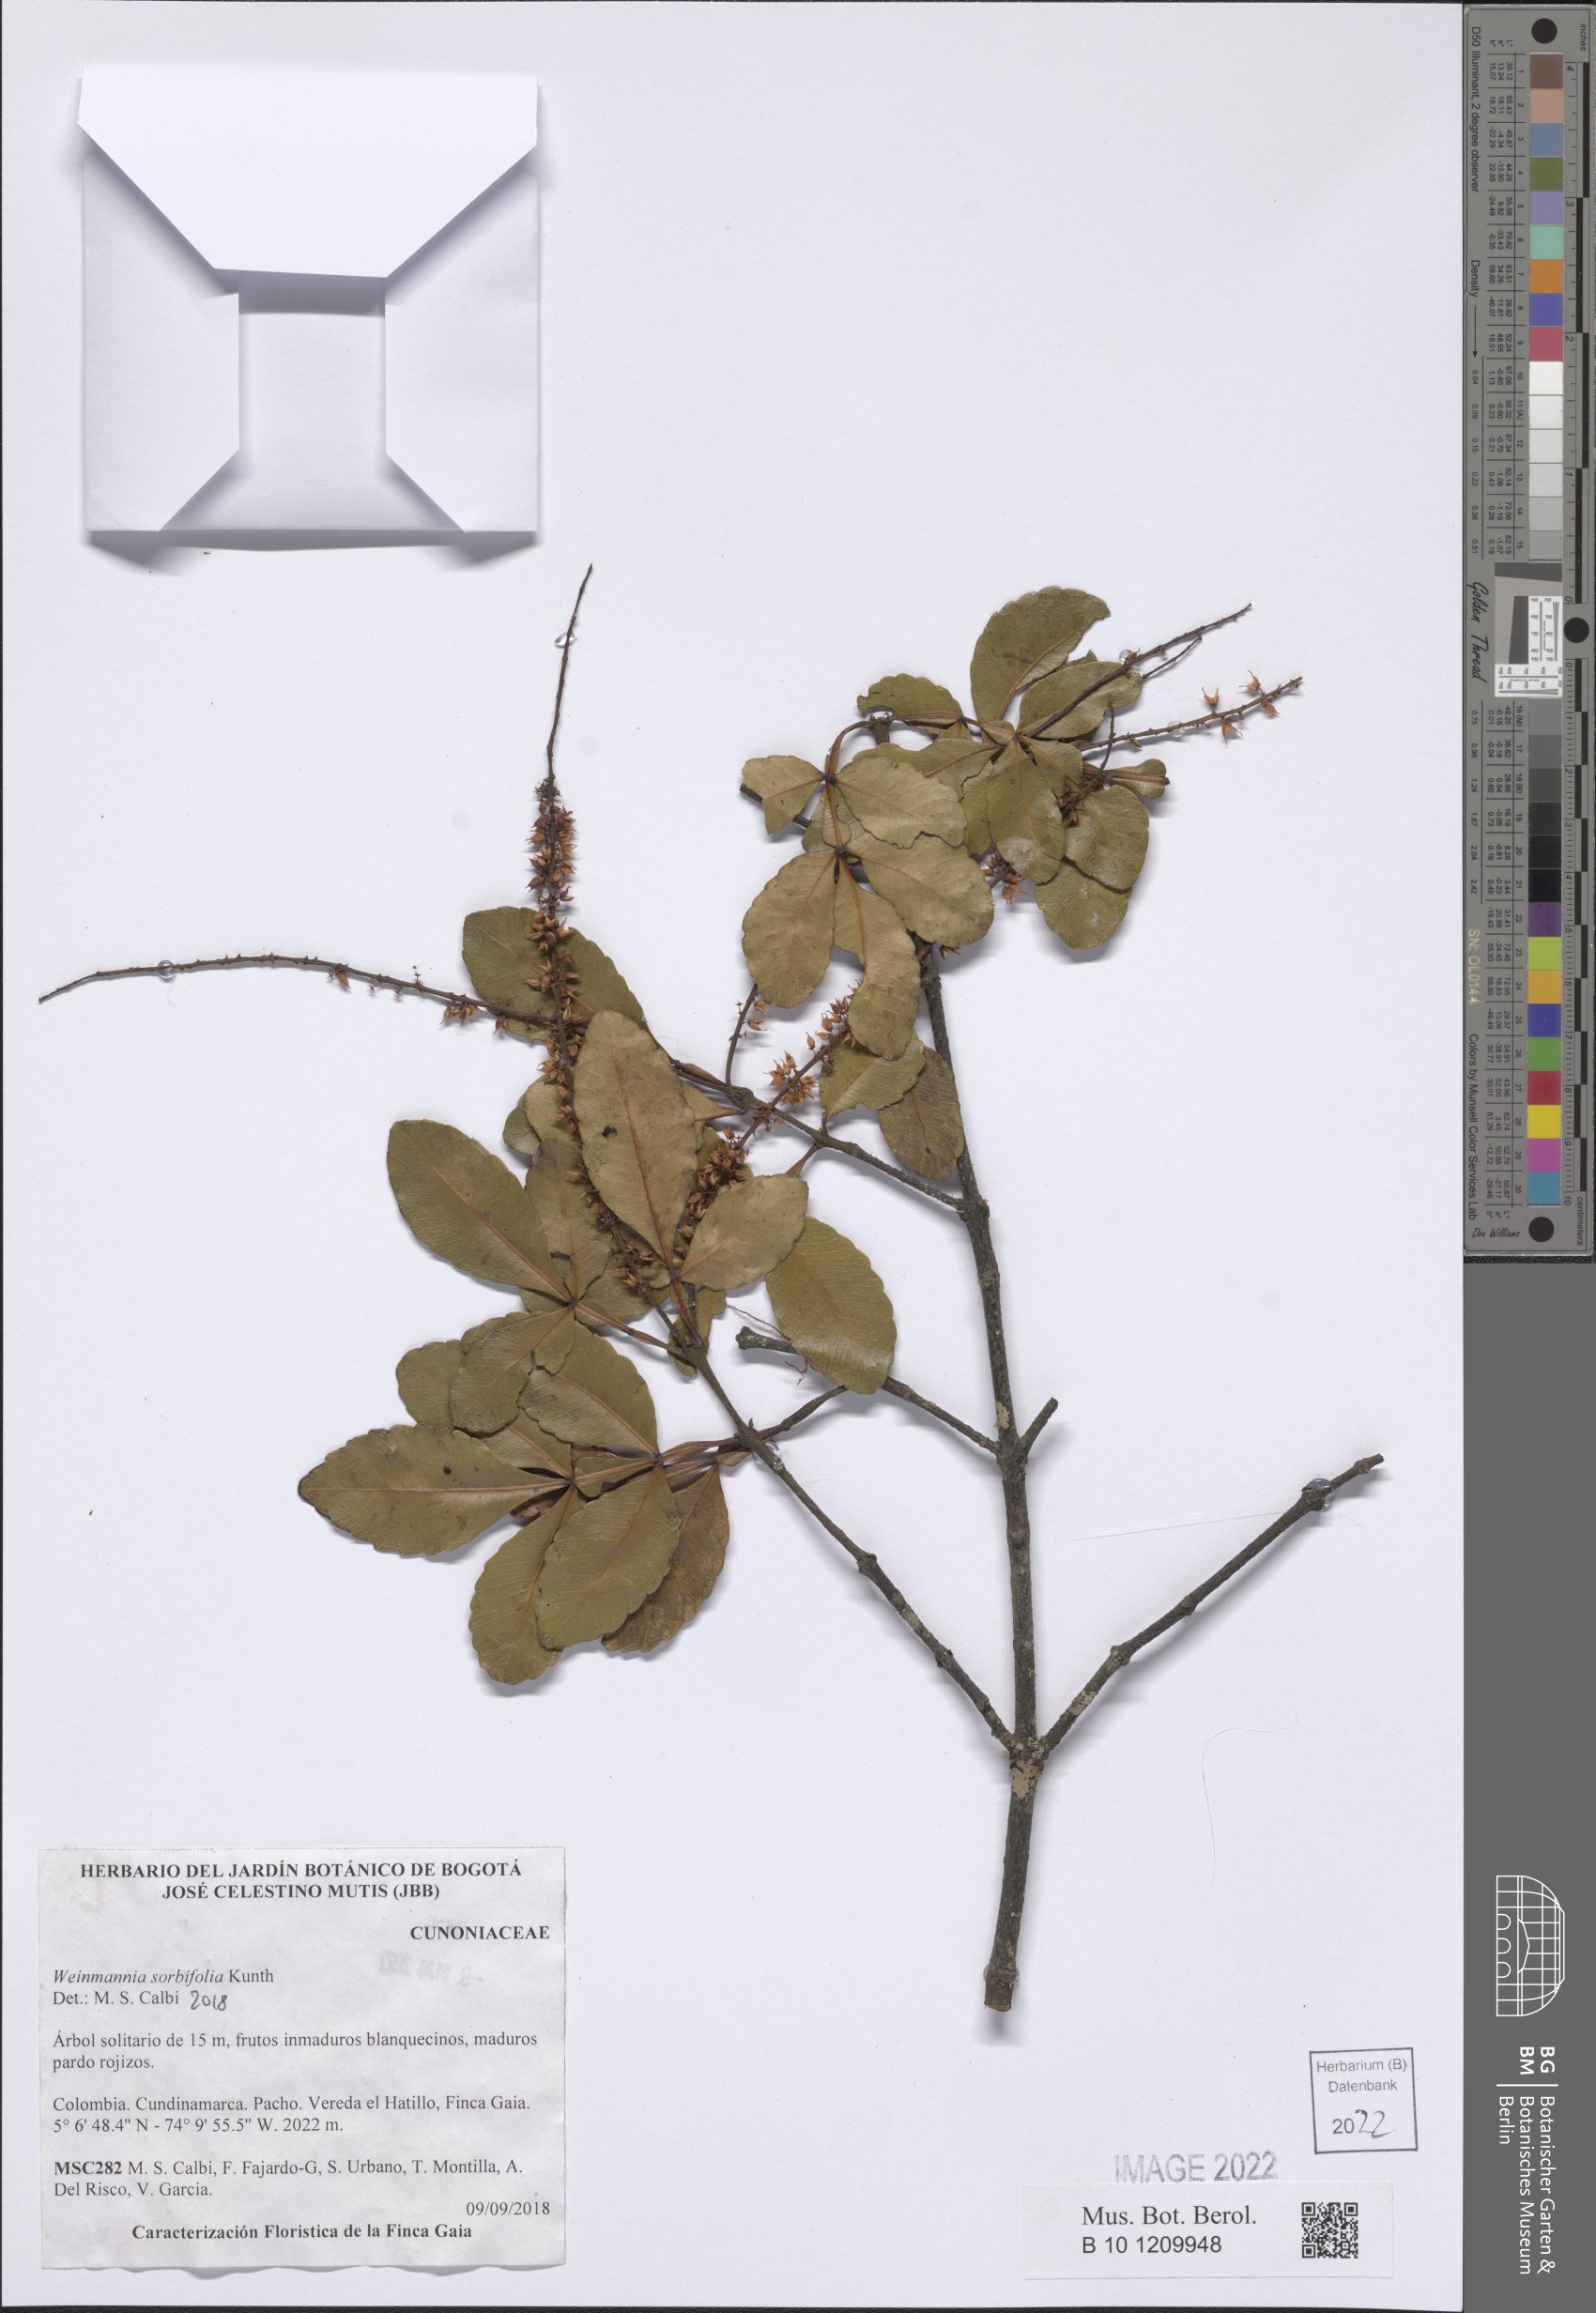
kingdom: Plantae
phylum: Tracheophyta
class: Magnoliopsida
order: Oxalidales
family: Cunoniaceae
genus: Weinmannia
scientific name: Weinmannia sorbifolia
